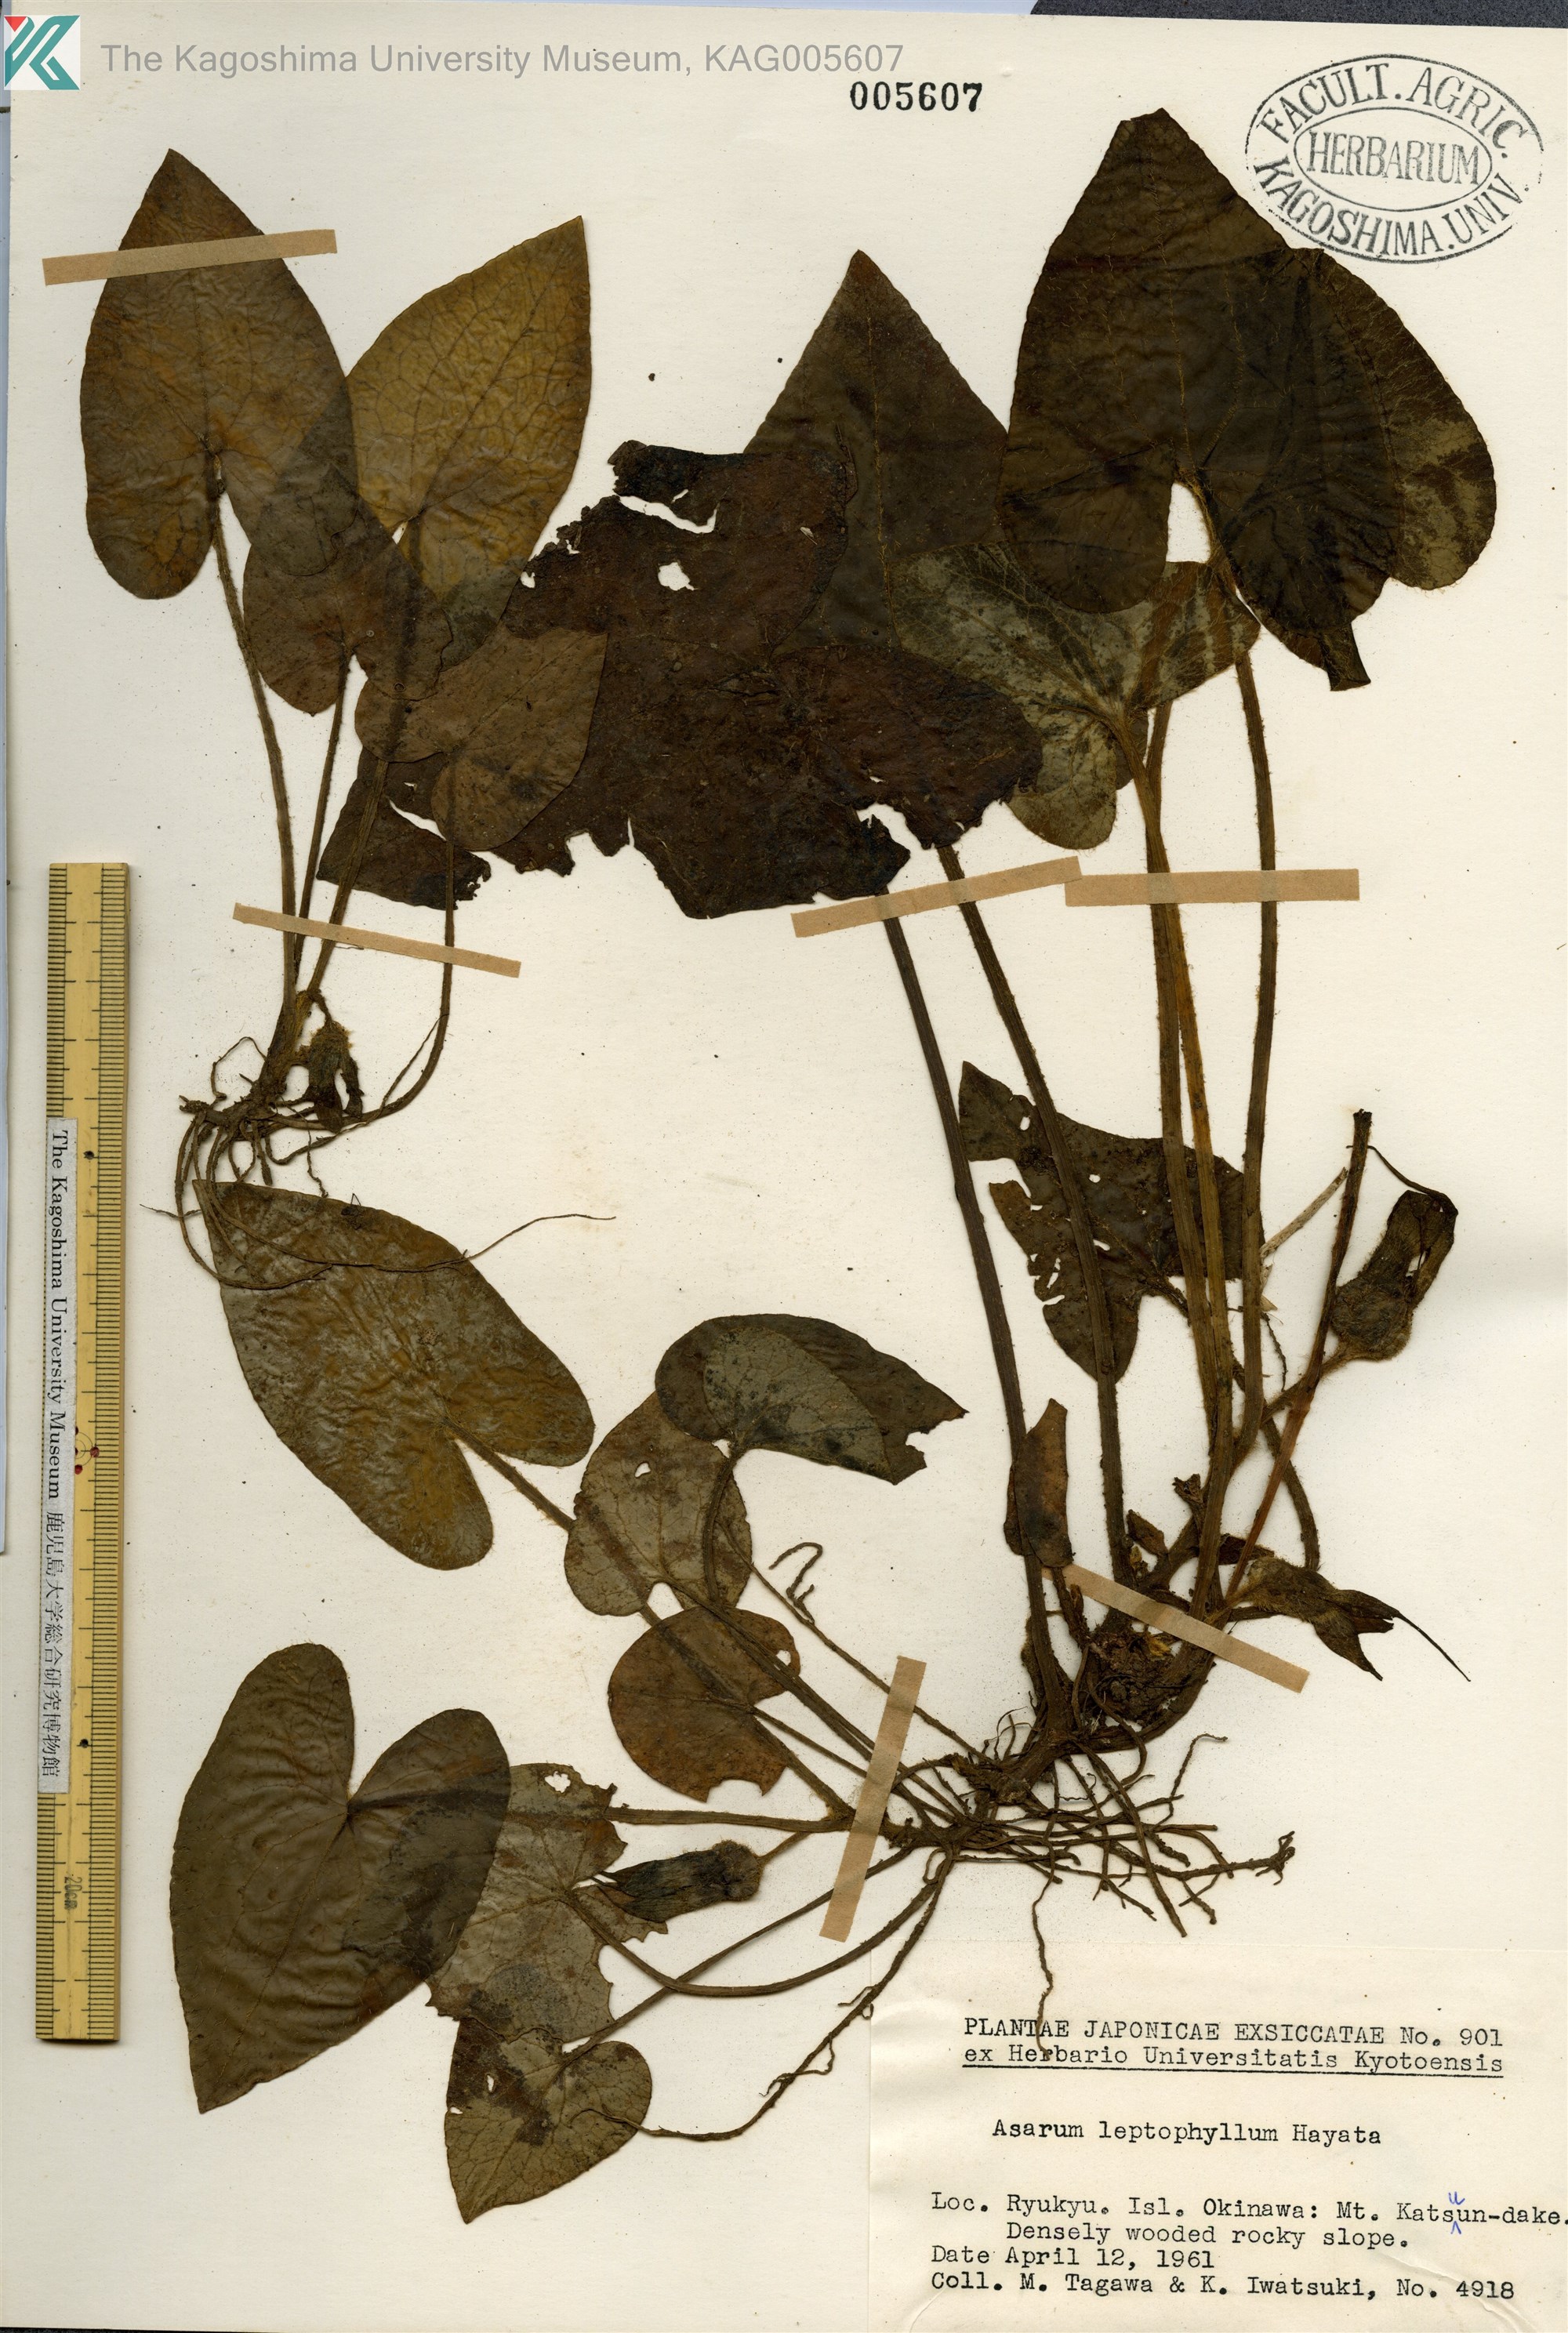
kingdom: Plantae
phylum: Tracheophyta
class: Magnoliopsida
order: Piperales
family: Aristolochiaceae
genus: Asarum
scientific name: Asarum caudigerum
